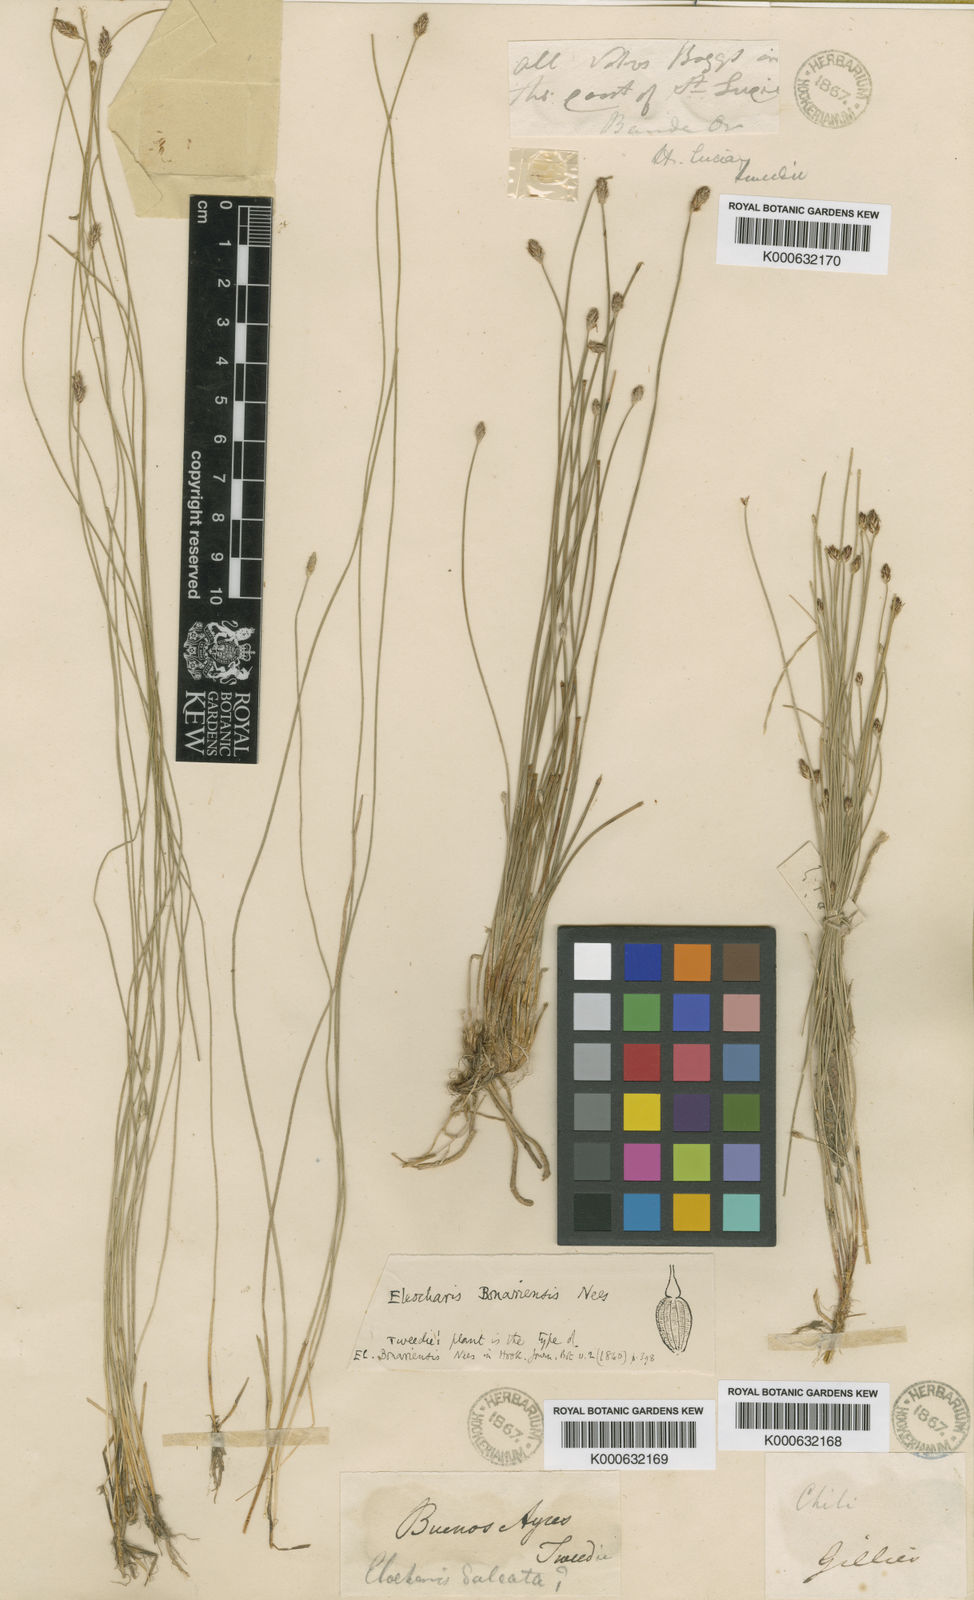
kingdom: Plantae
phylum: Tracheophyta
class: Liliopsida
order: Poales
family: Cyperaceae
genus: Eleocharis
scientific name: Eleocharis bonariensis
